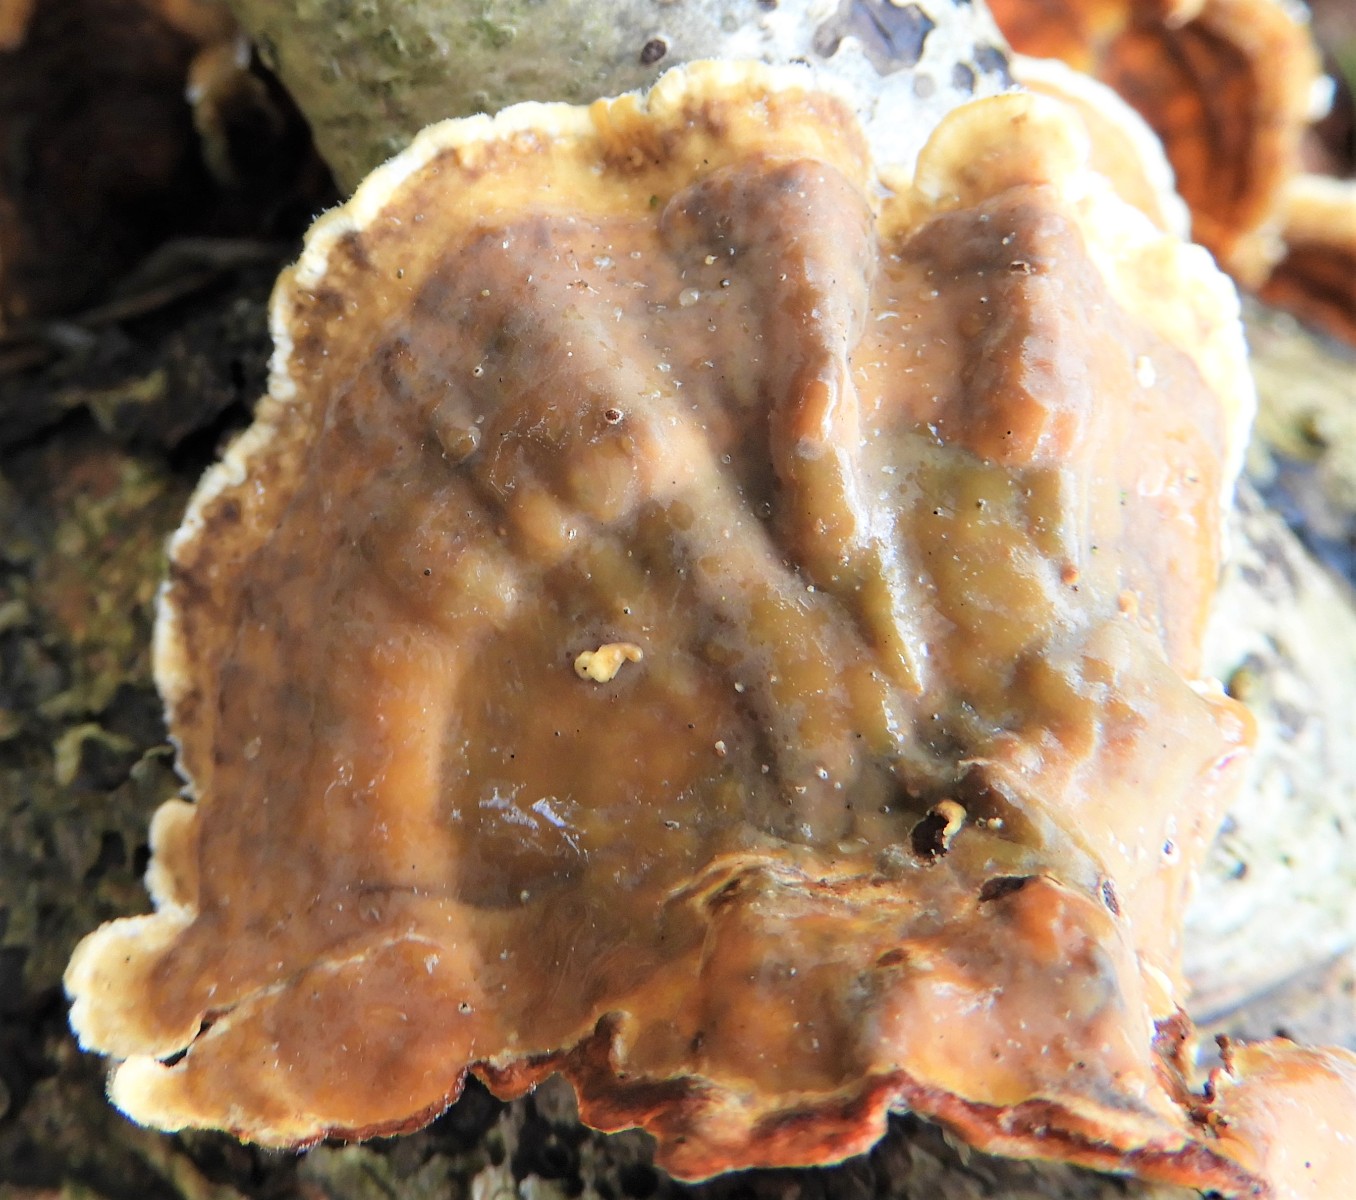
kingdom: Fungi
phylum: Basidiomycota
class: Agaricomycetes
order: Russulales
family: Stereaceae
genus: Stereum
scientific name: Stereum subtomentosum
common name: smuk lædersvamp
